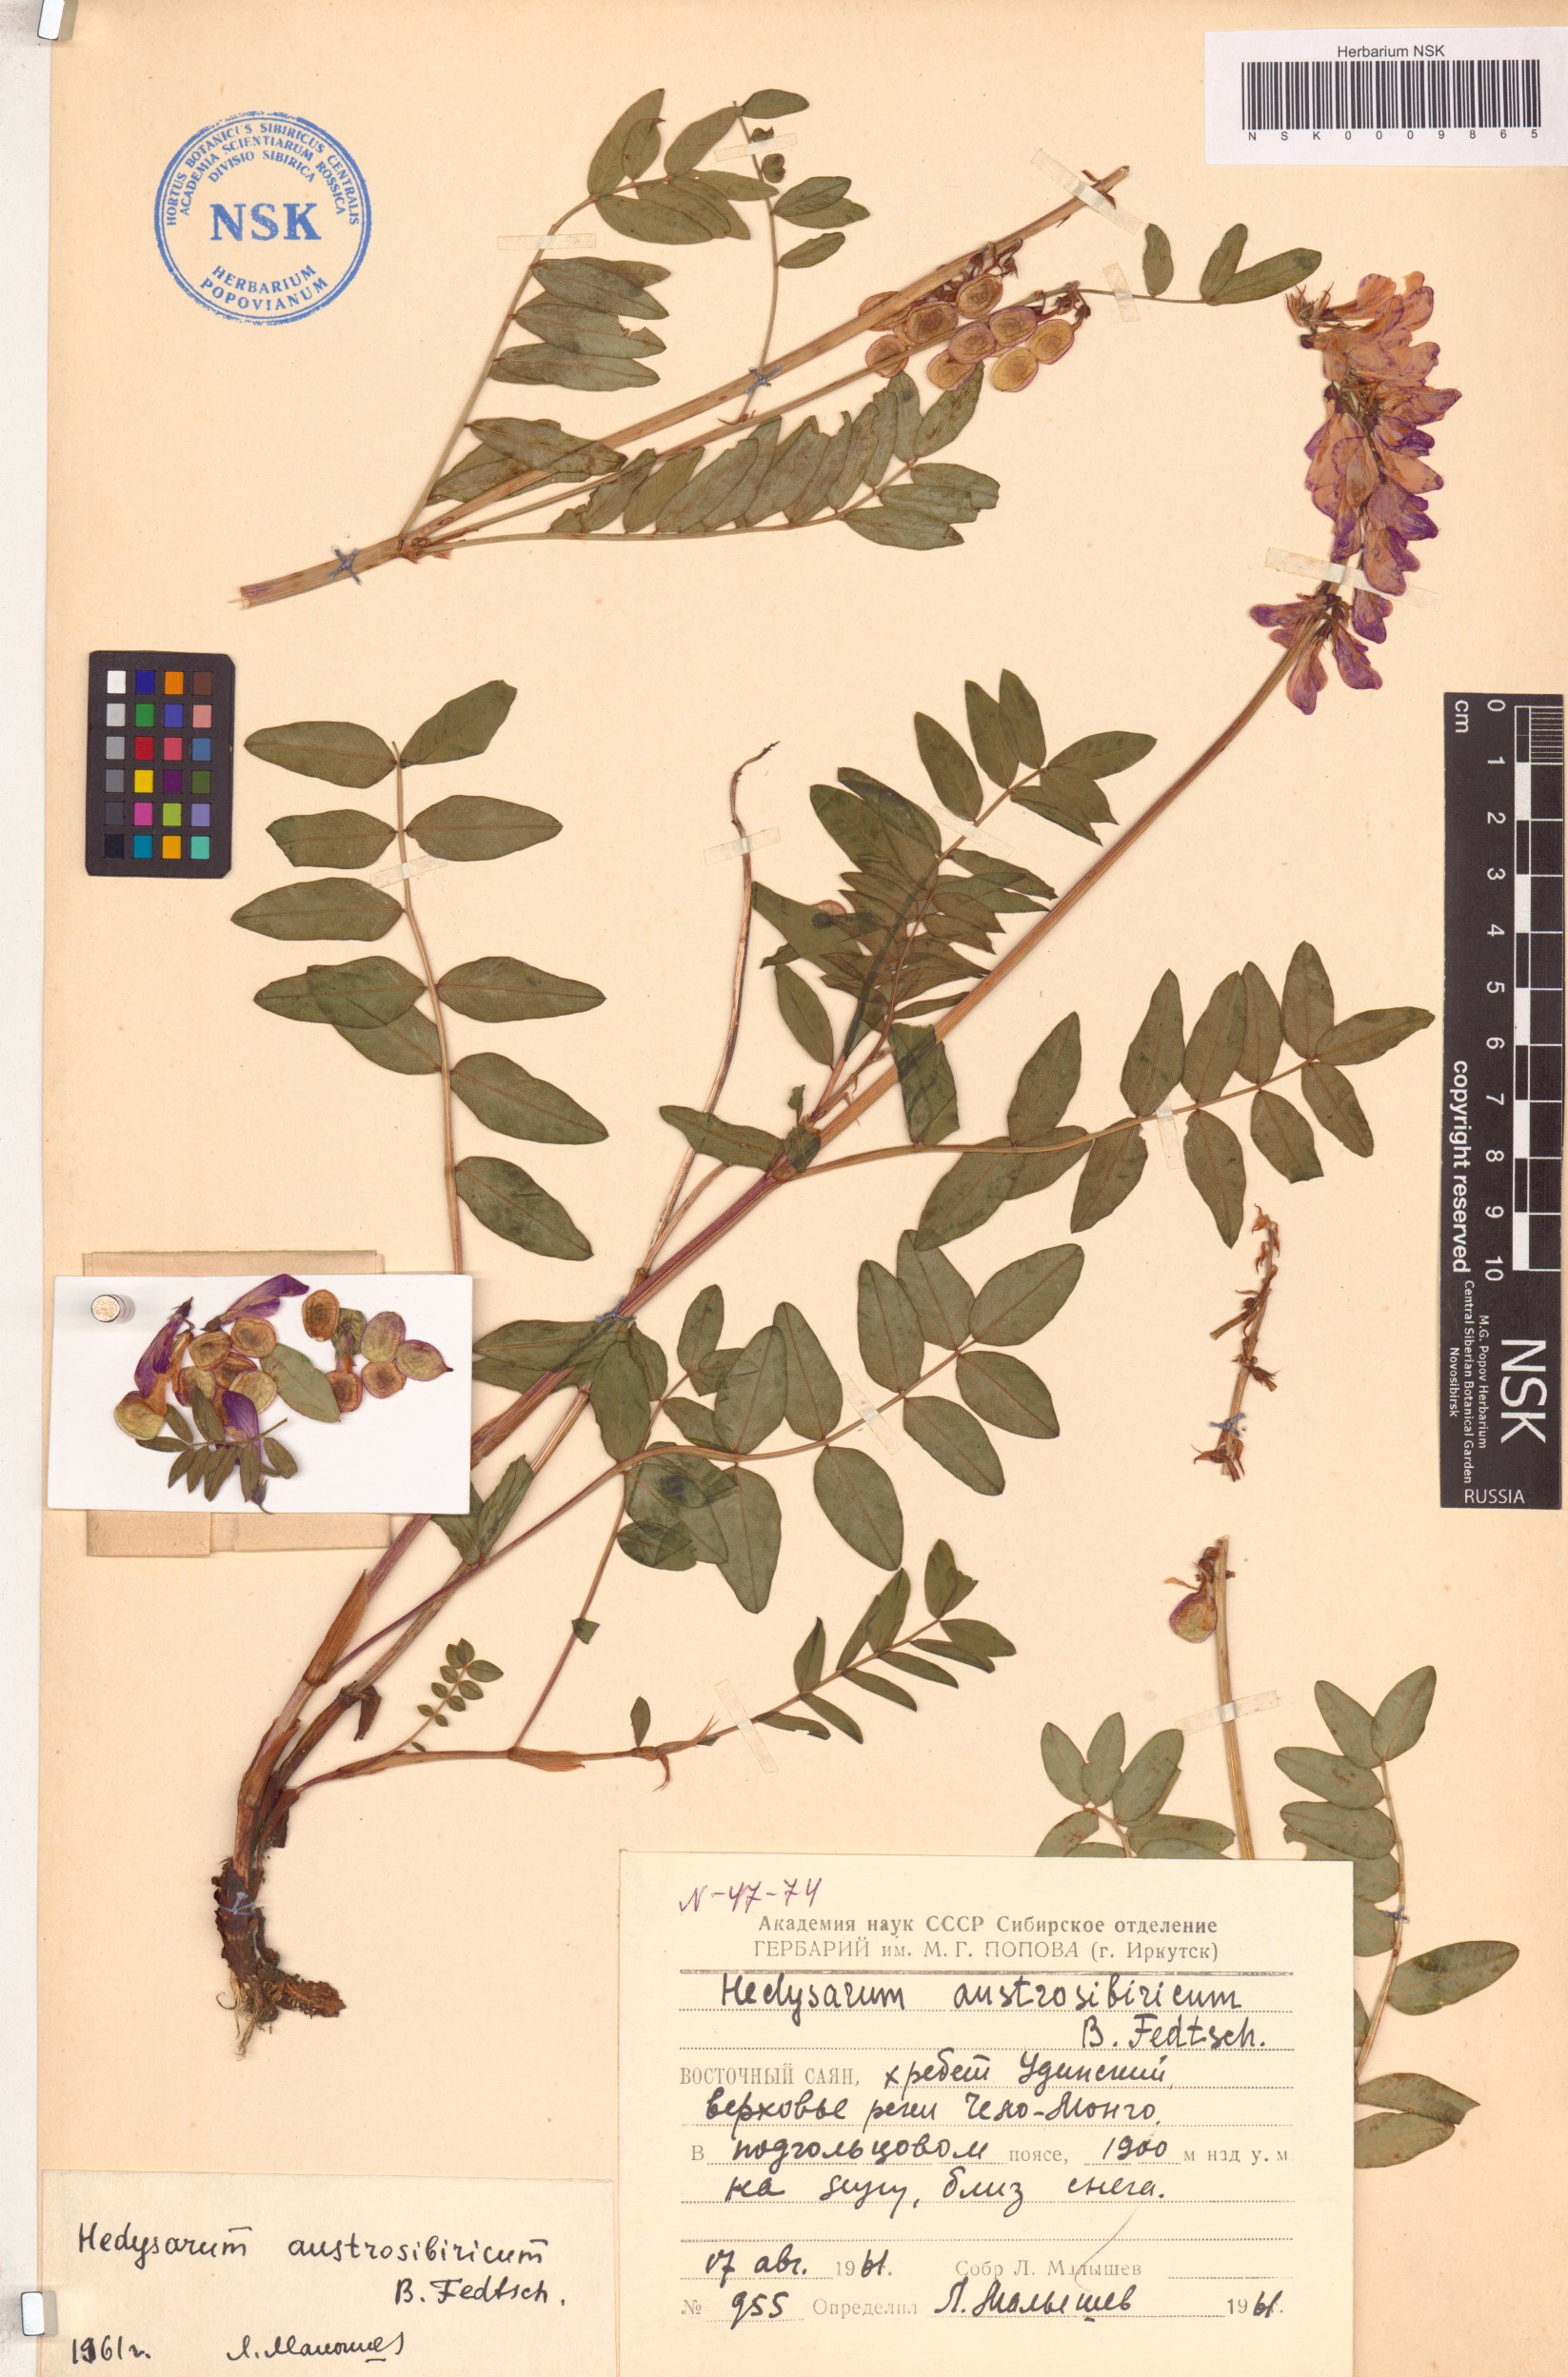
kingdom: Plantae
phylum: Tracheophyta
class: Magnoliopsida
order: Fabales
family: Fabaceae
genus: Hedysarum
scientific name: Hedysarum neglectum
